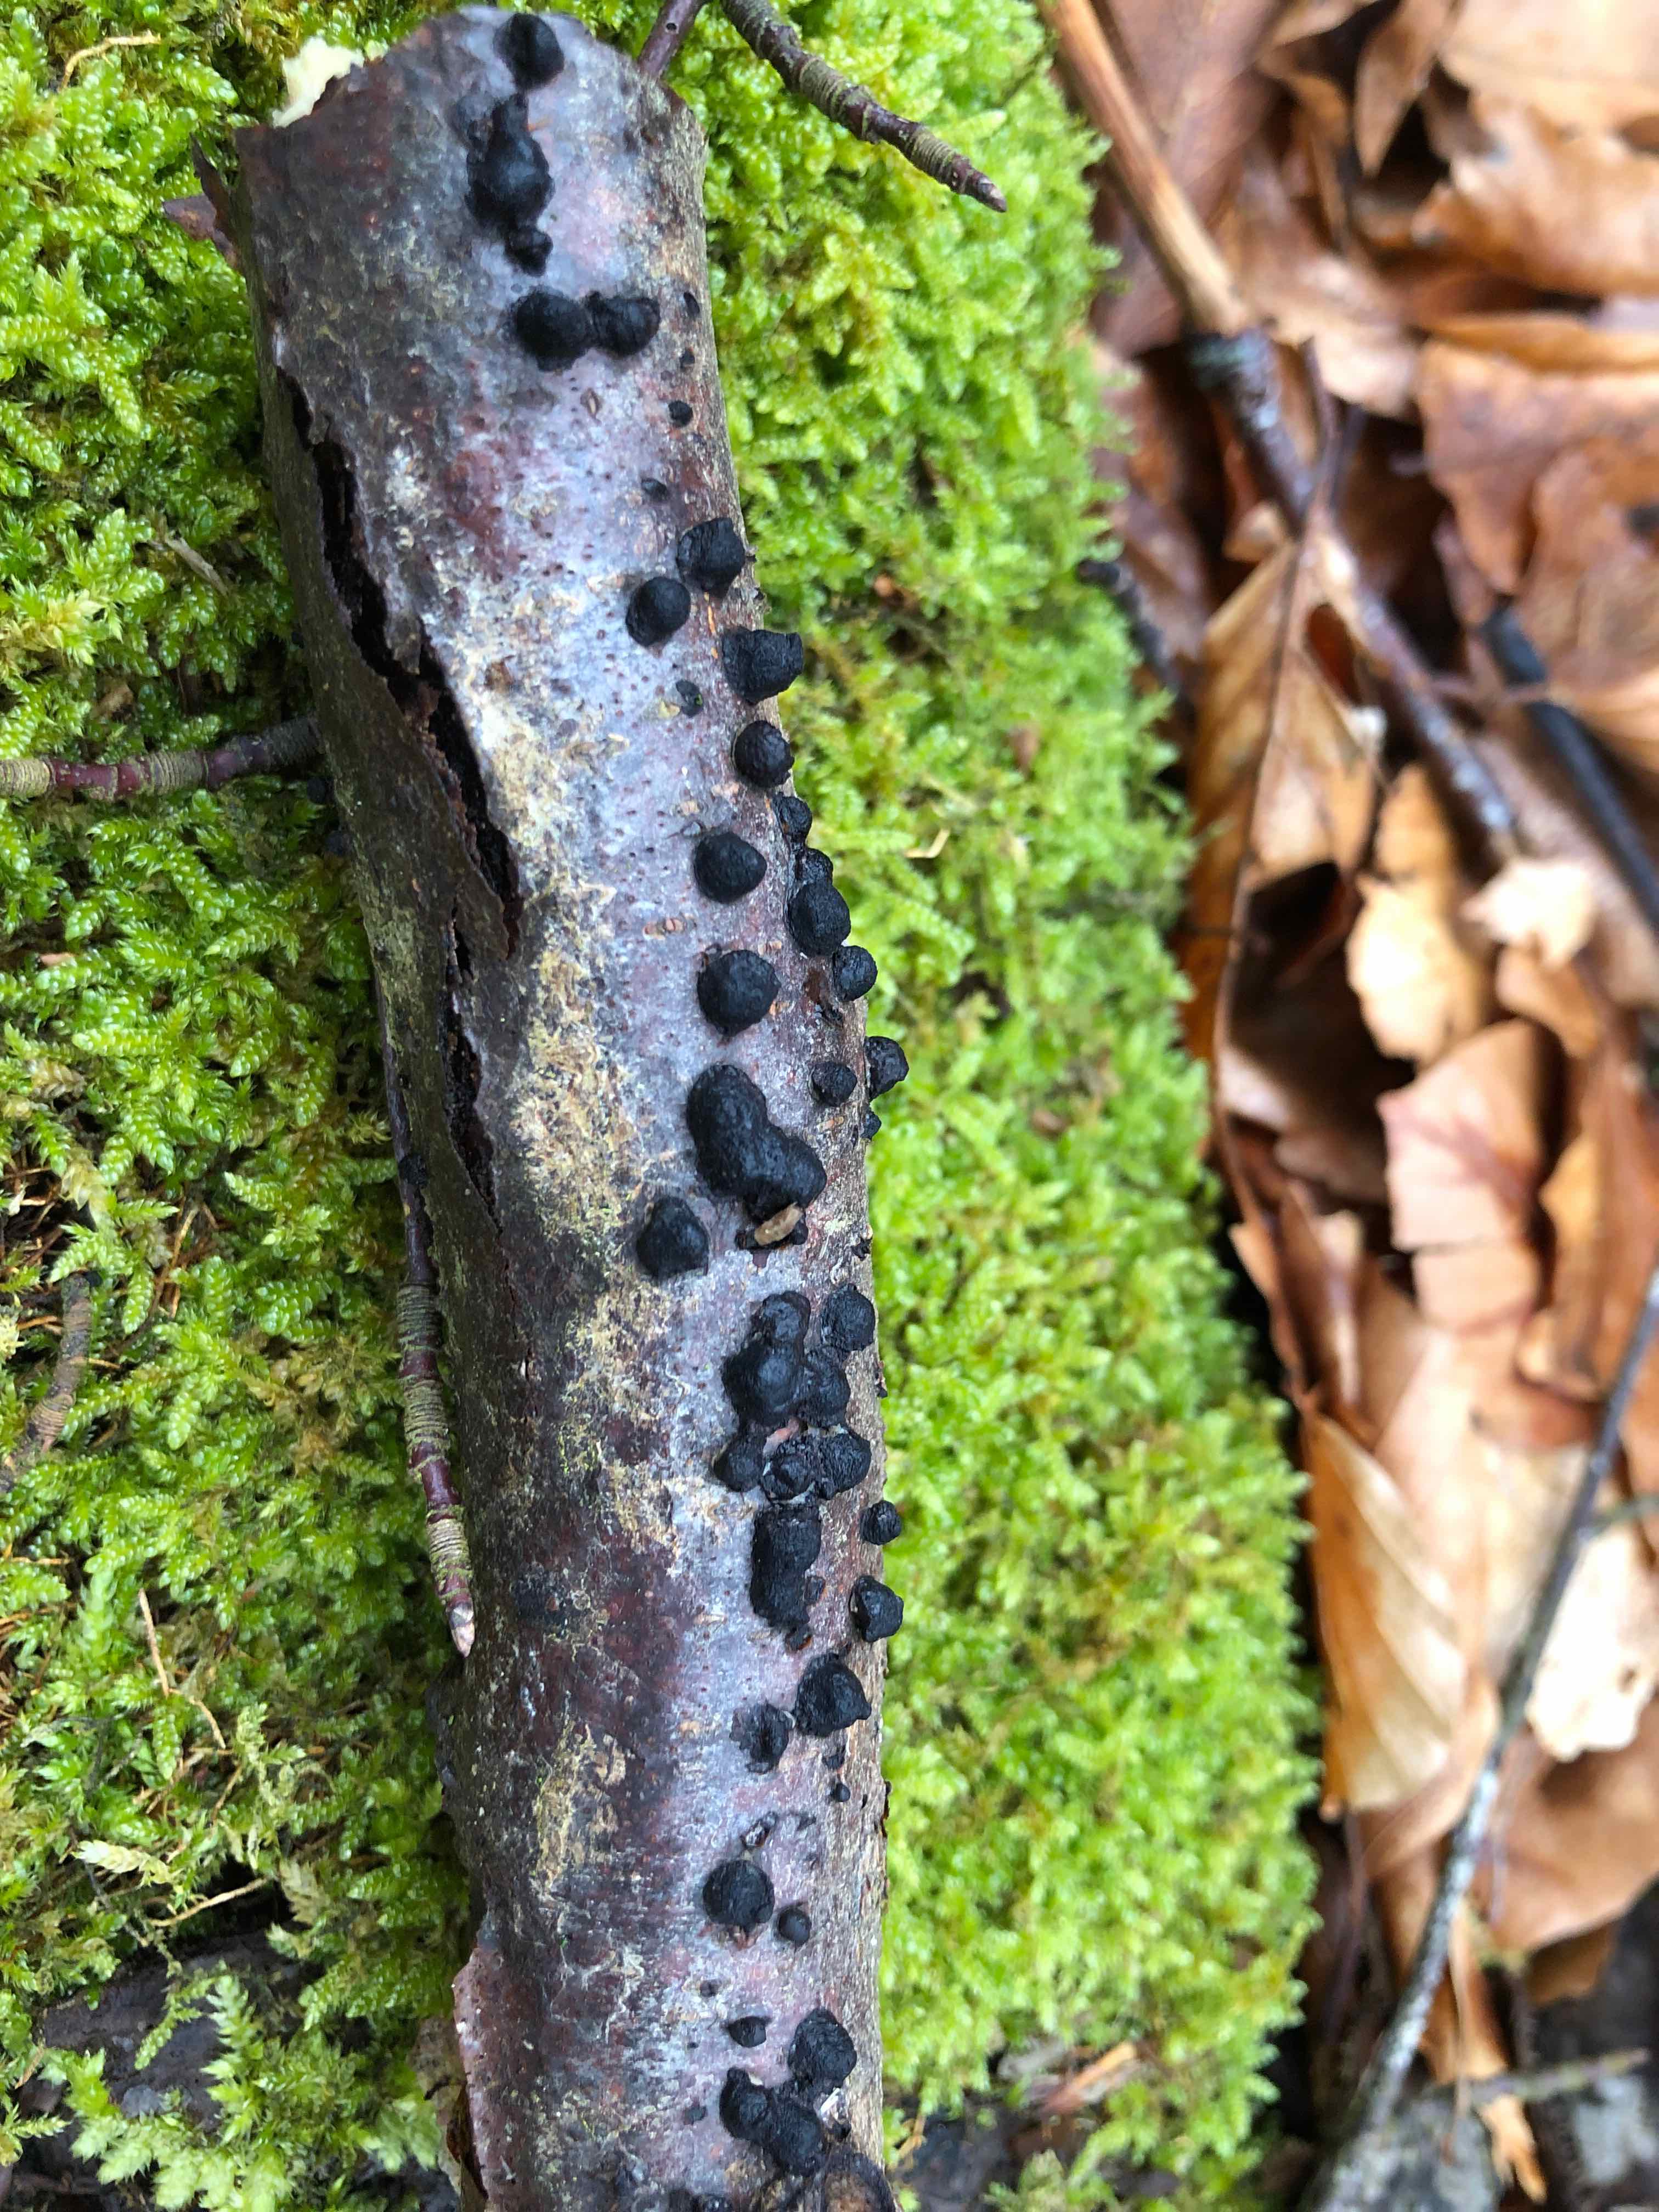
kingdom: Fungi
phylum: Ascomycota
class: Sordariomycetes
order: Xylariales
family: Hypoxylaceae
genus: Hypoxylon
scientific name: Hypoxylon
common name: kulbær
